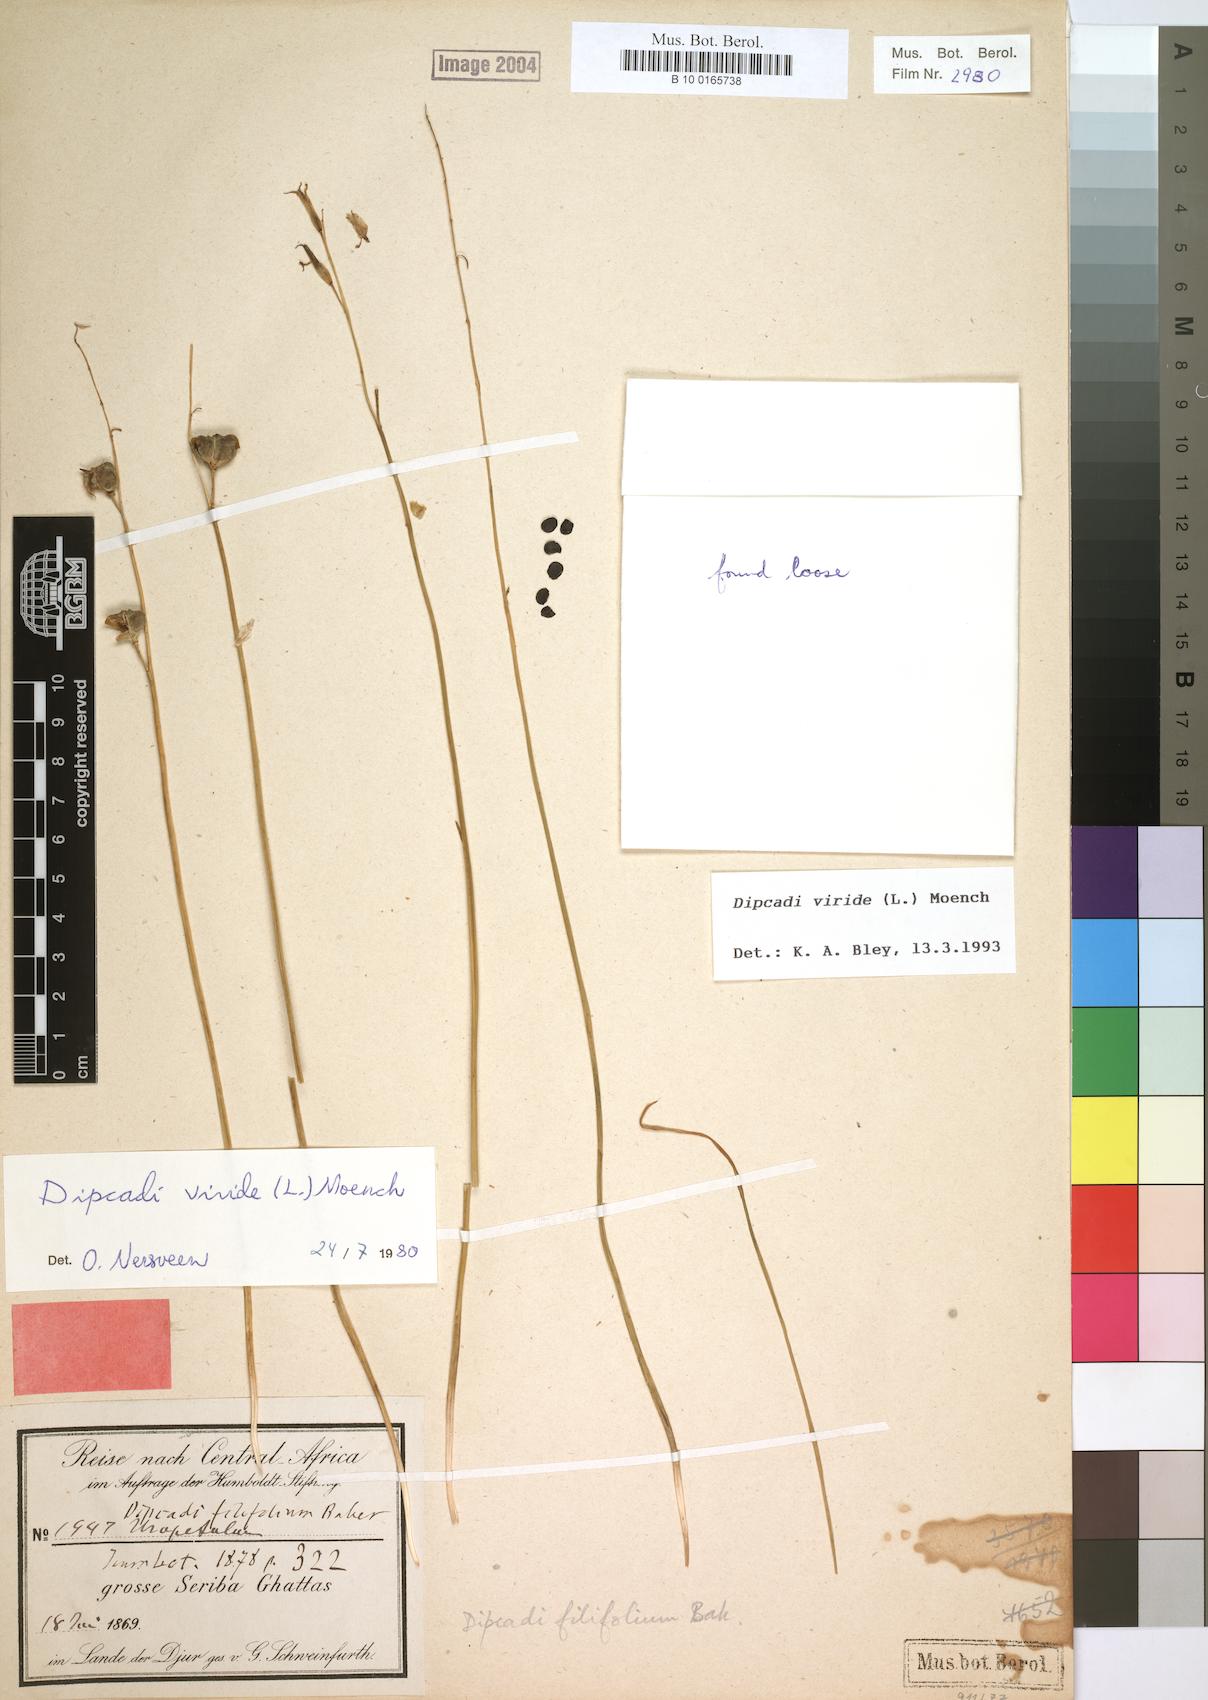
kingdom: Plantae
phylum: Tracheophyta
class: Liliopsida
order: Asparagales
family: Asparagaceae
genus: Dipcadi
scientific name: Dipcadi viride
